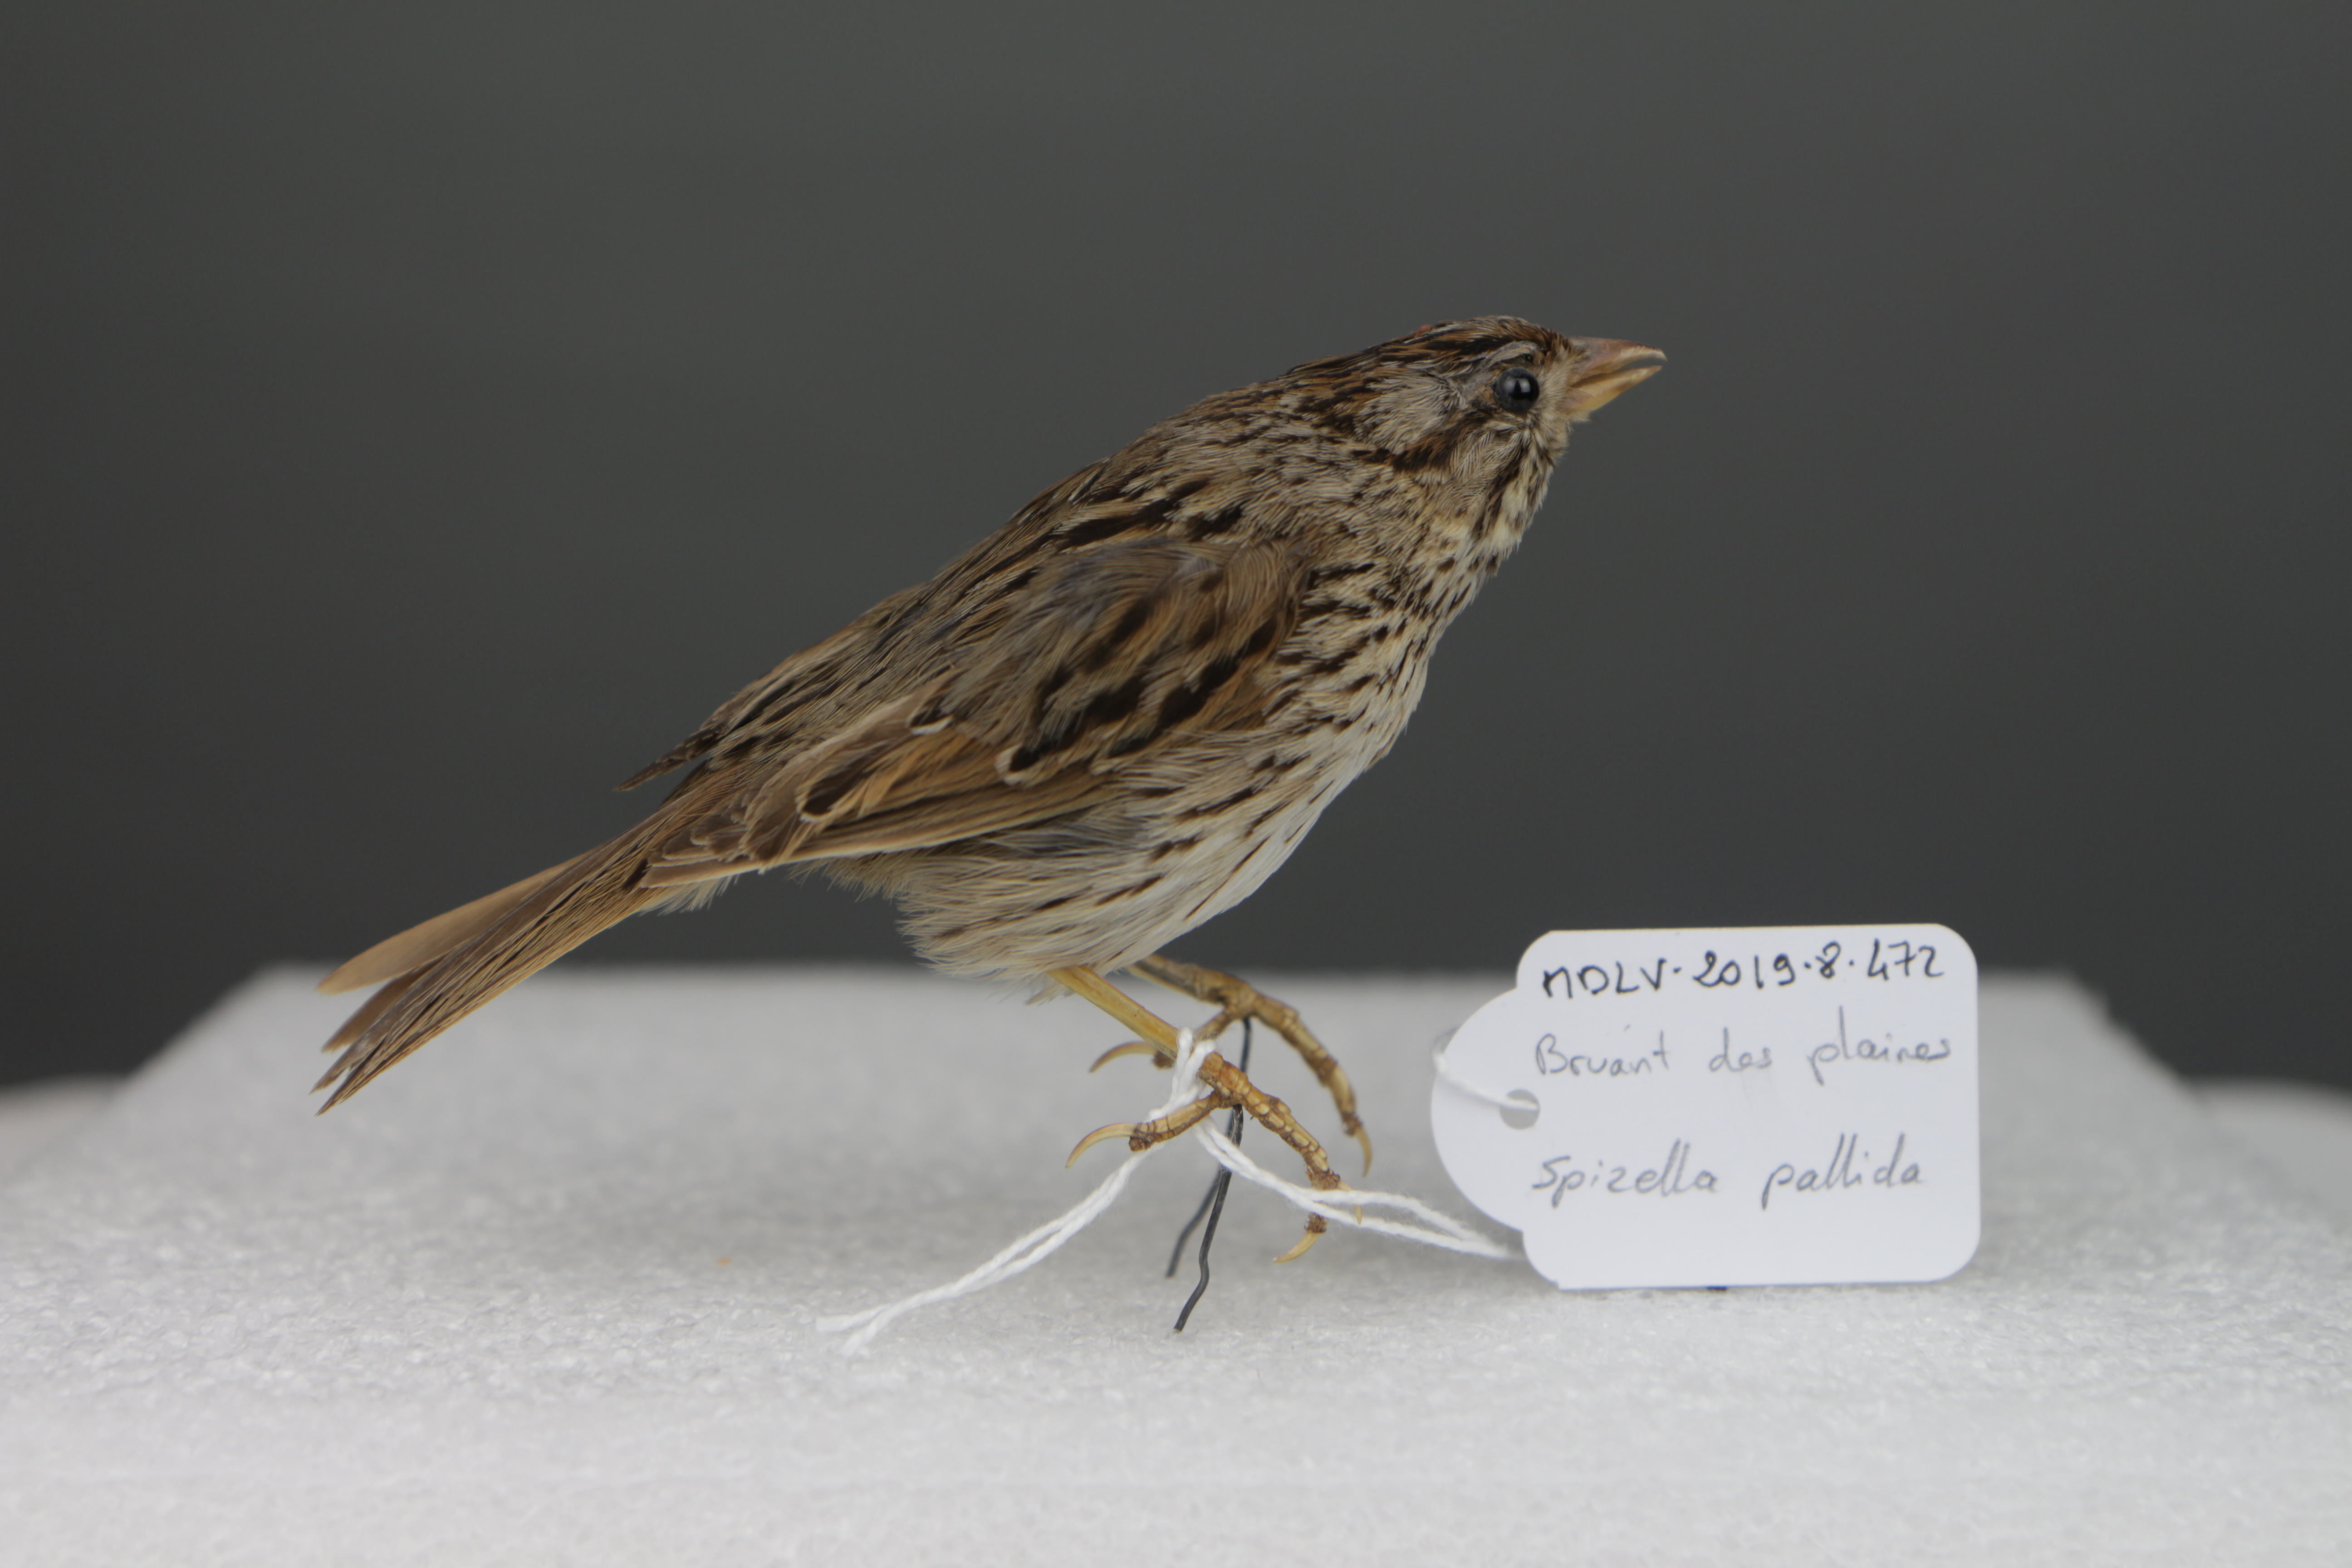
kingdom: Animalia
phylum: Chordata
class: Aves
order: Passeriformes
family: Passerellidae
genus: Spizella
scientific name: Spizella pallida
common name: Clay-colored sparrow
